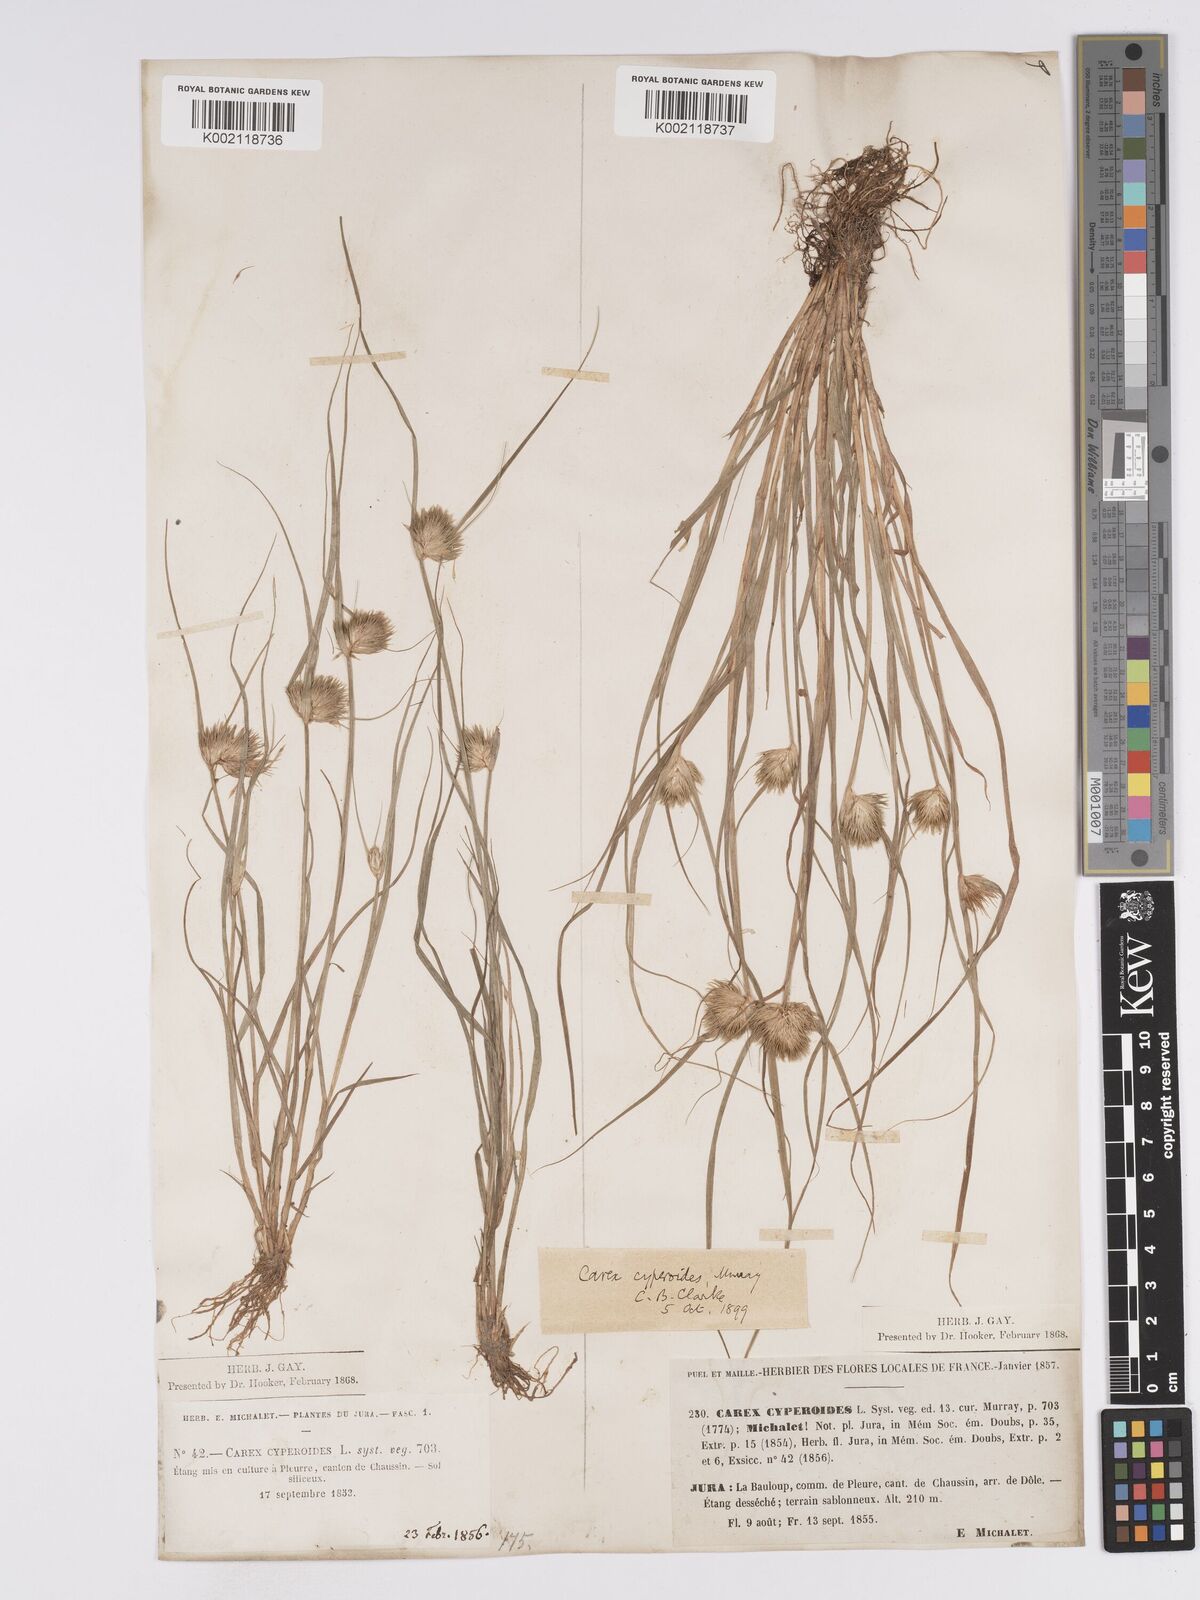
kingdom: Plantae
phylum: Tracheophyta
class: Liliopsida
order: Poales
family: Cyperaceae
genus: Carex
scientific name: Carex bohemica
